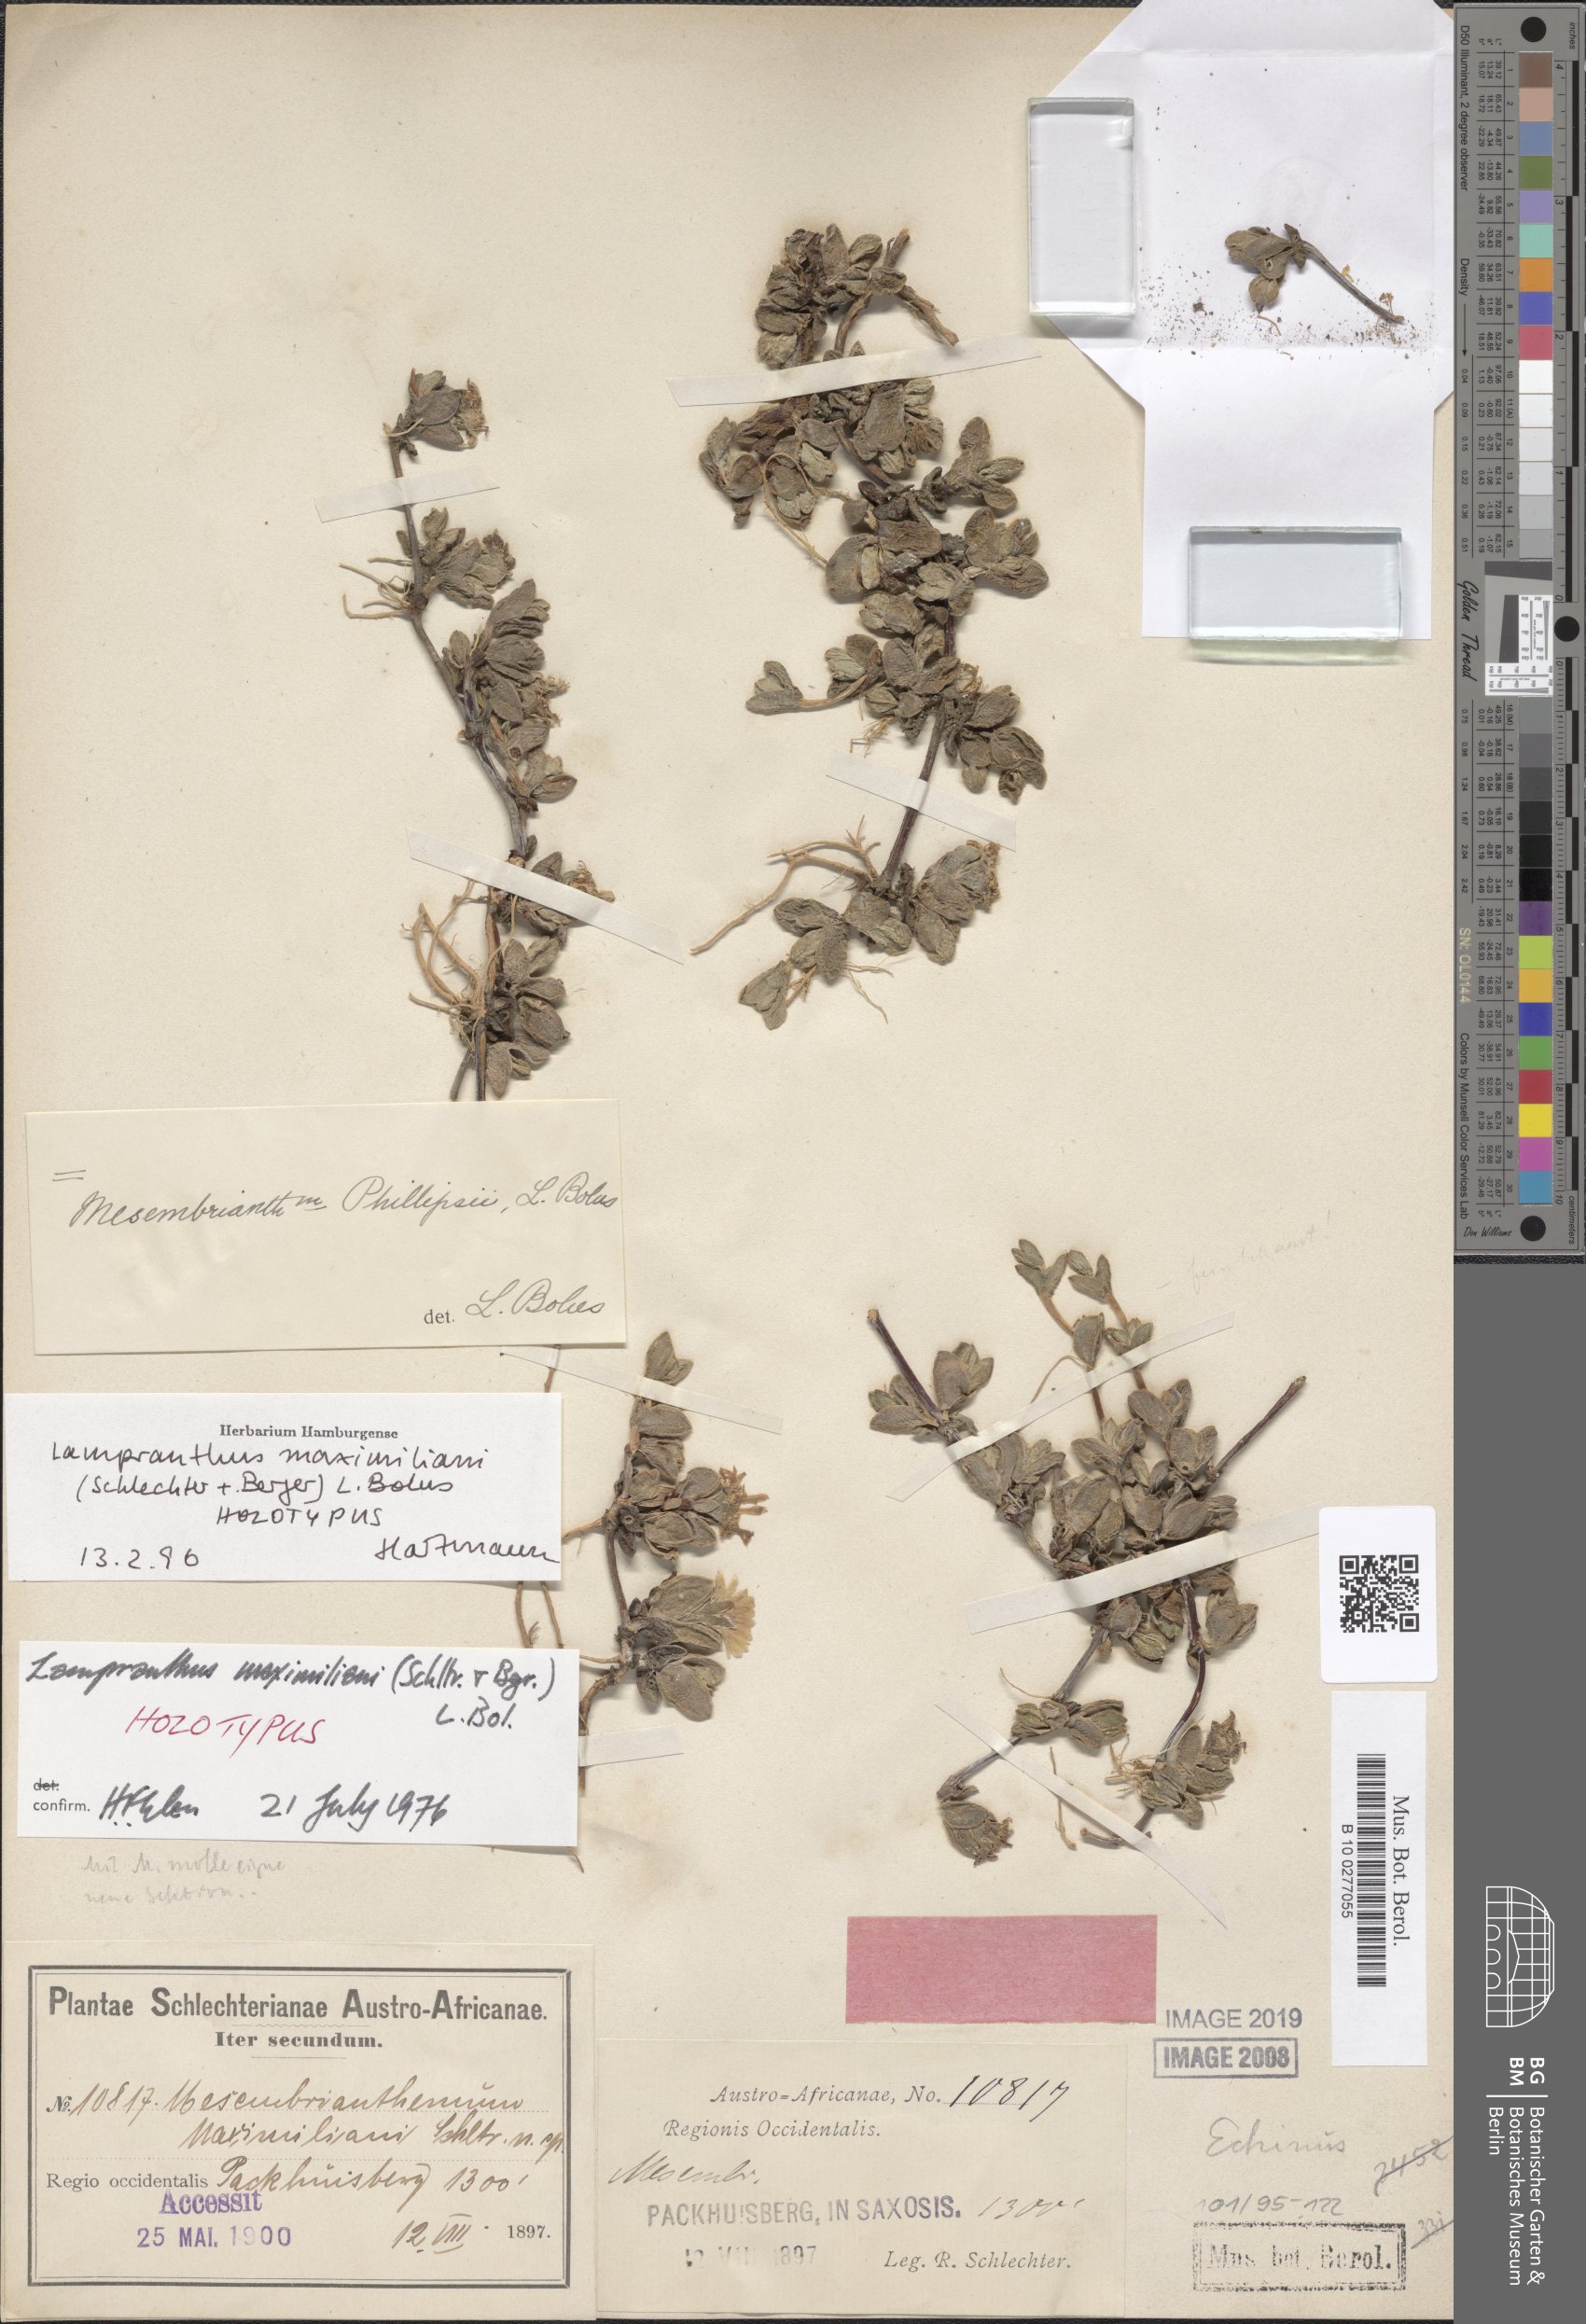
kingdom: Plantae
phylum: Tracheophyta
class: Magnoliopsida
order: Caryophyllales
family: Aizoaceae
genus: Braunsia
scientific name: Braunsia maximiliani
